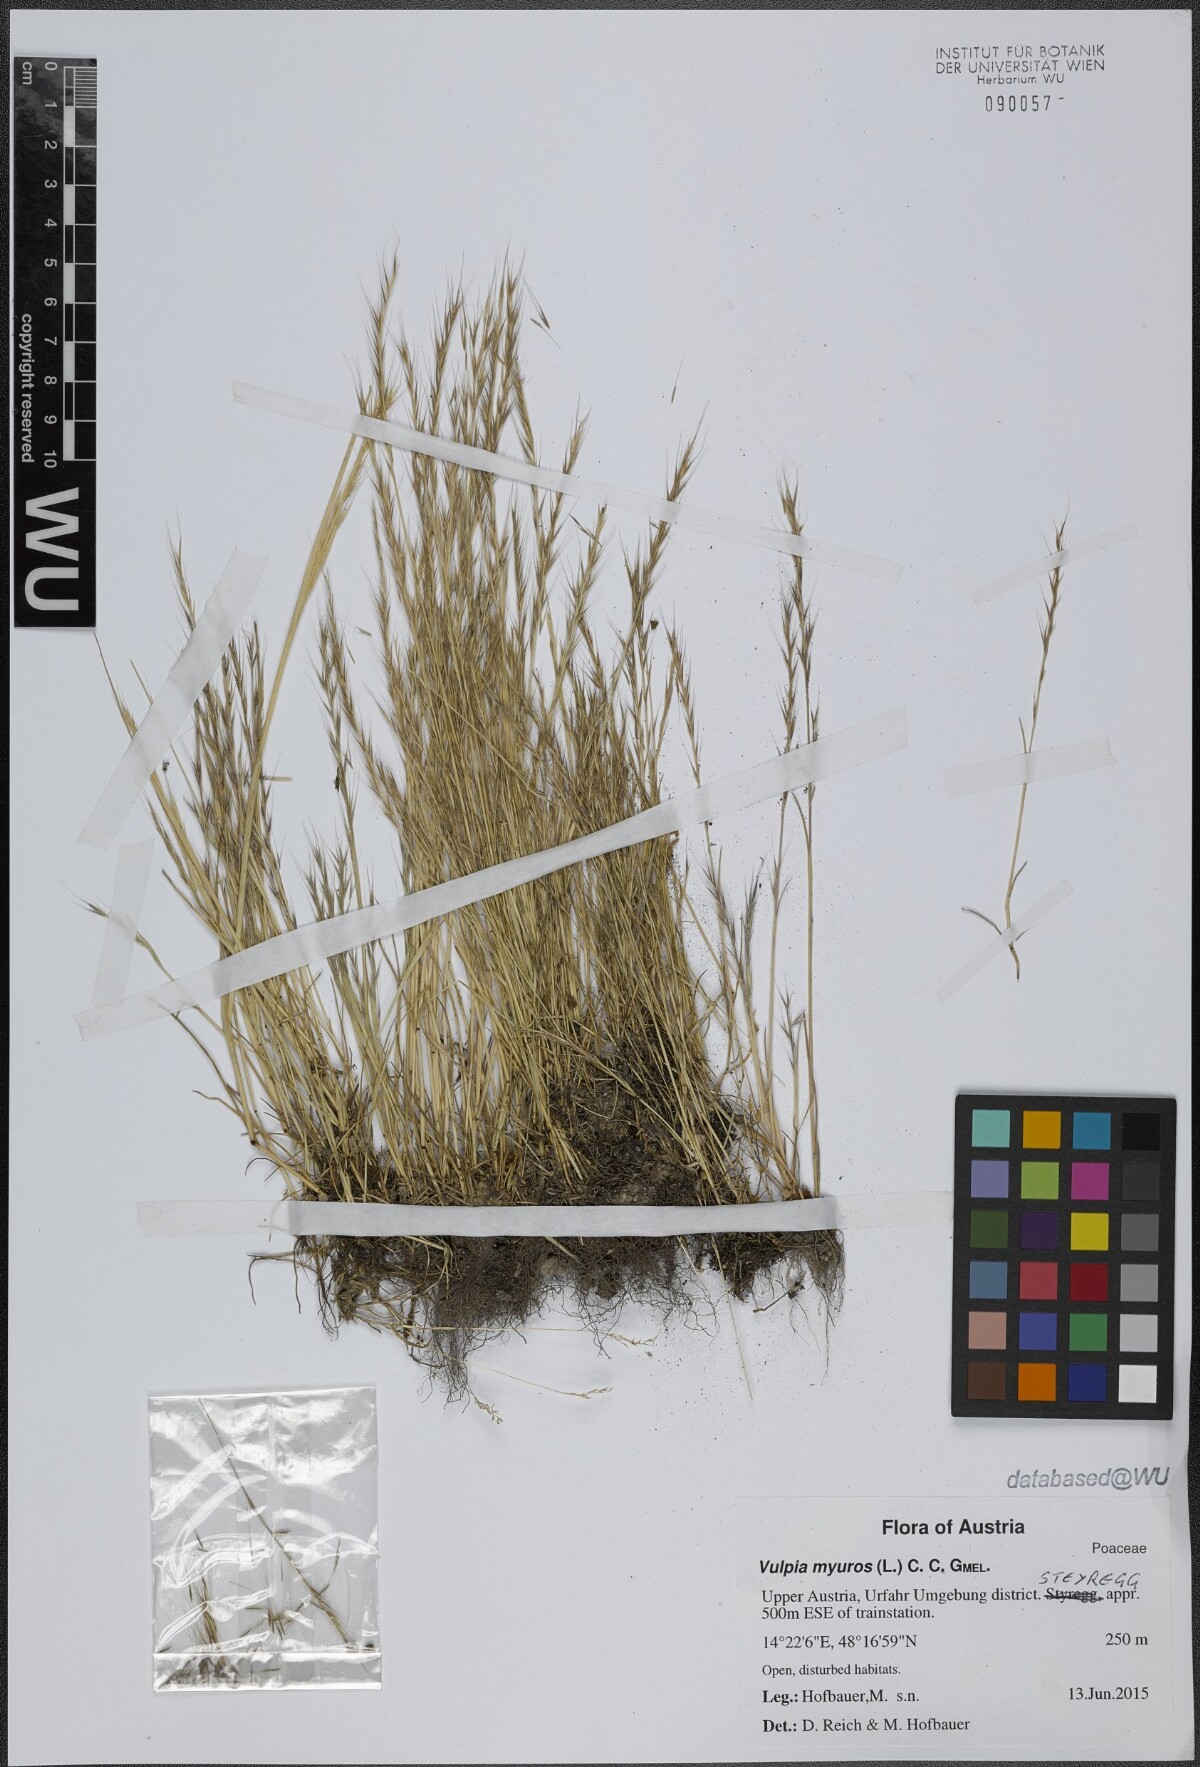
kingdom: Plantae
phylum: Tracheophyta
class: Liliopsida
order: Poales
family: Poaceae
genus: Festuca
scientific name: Festuca myuros
